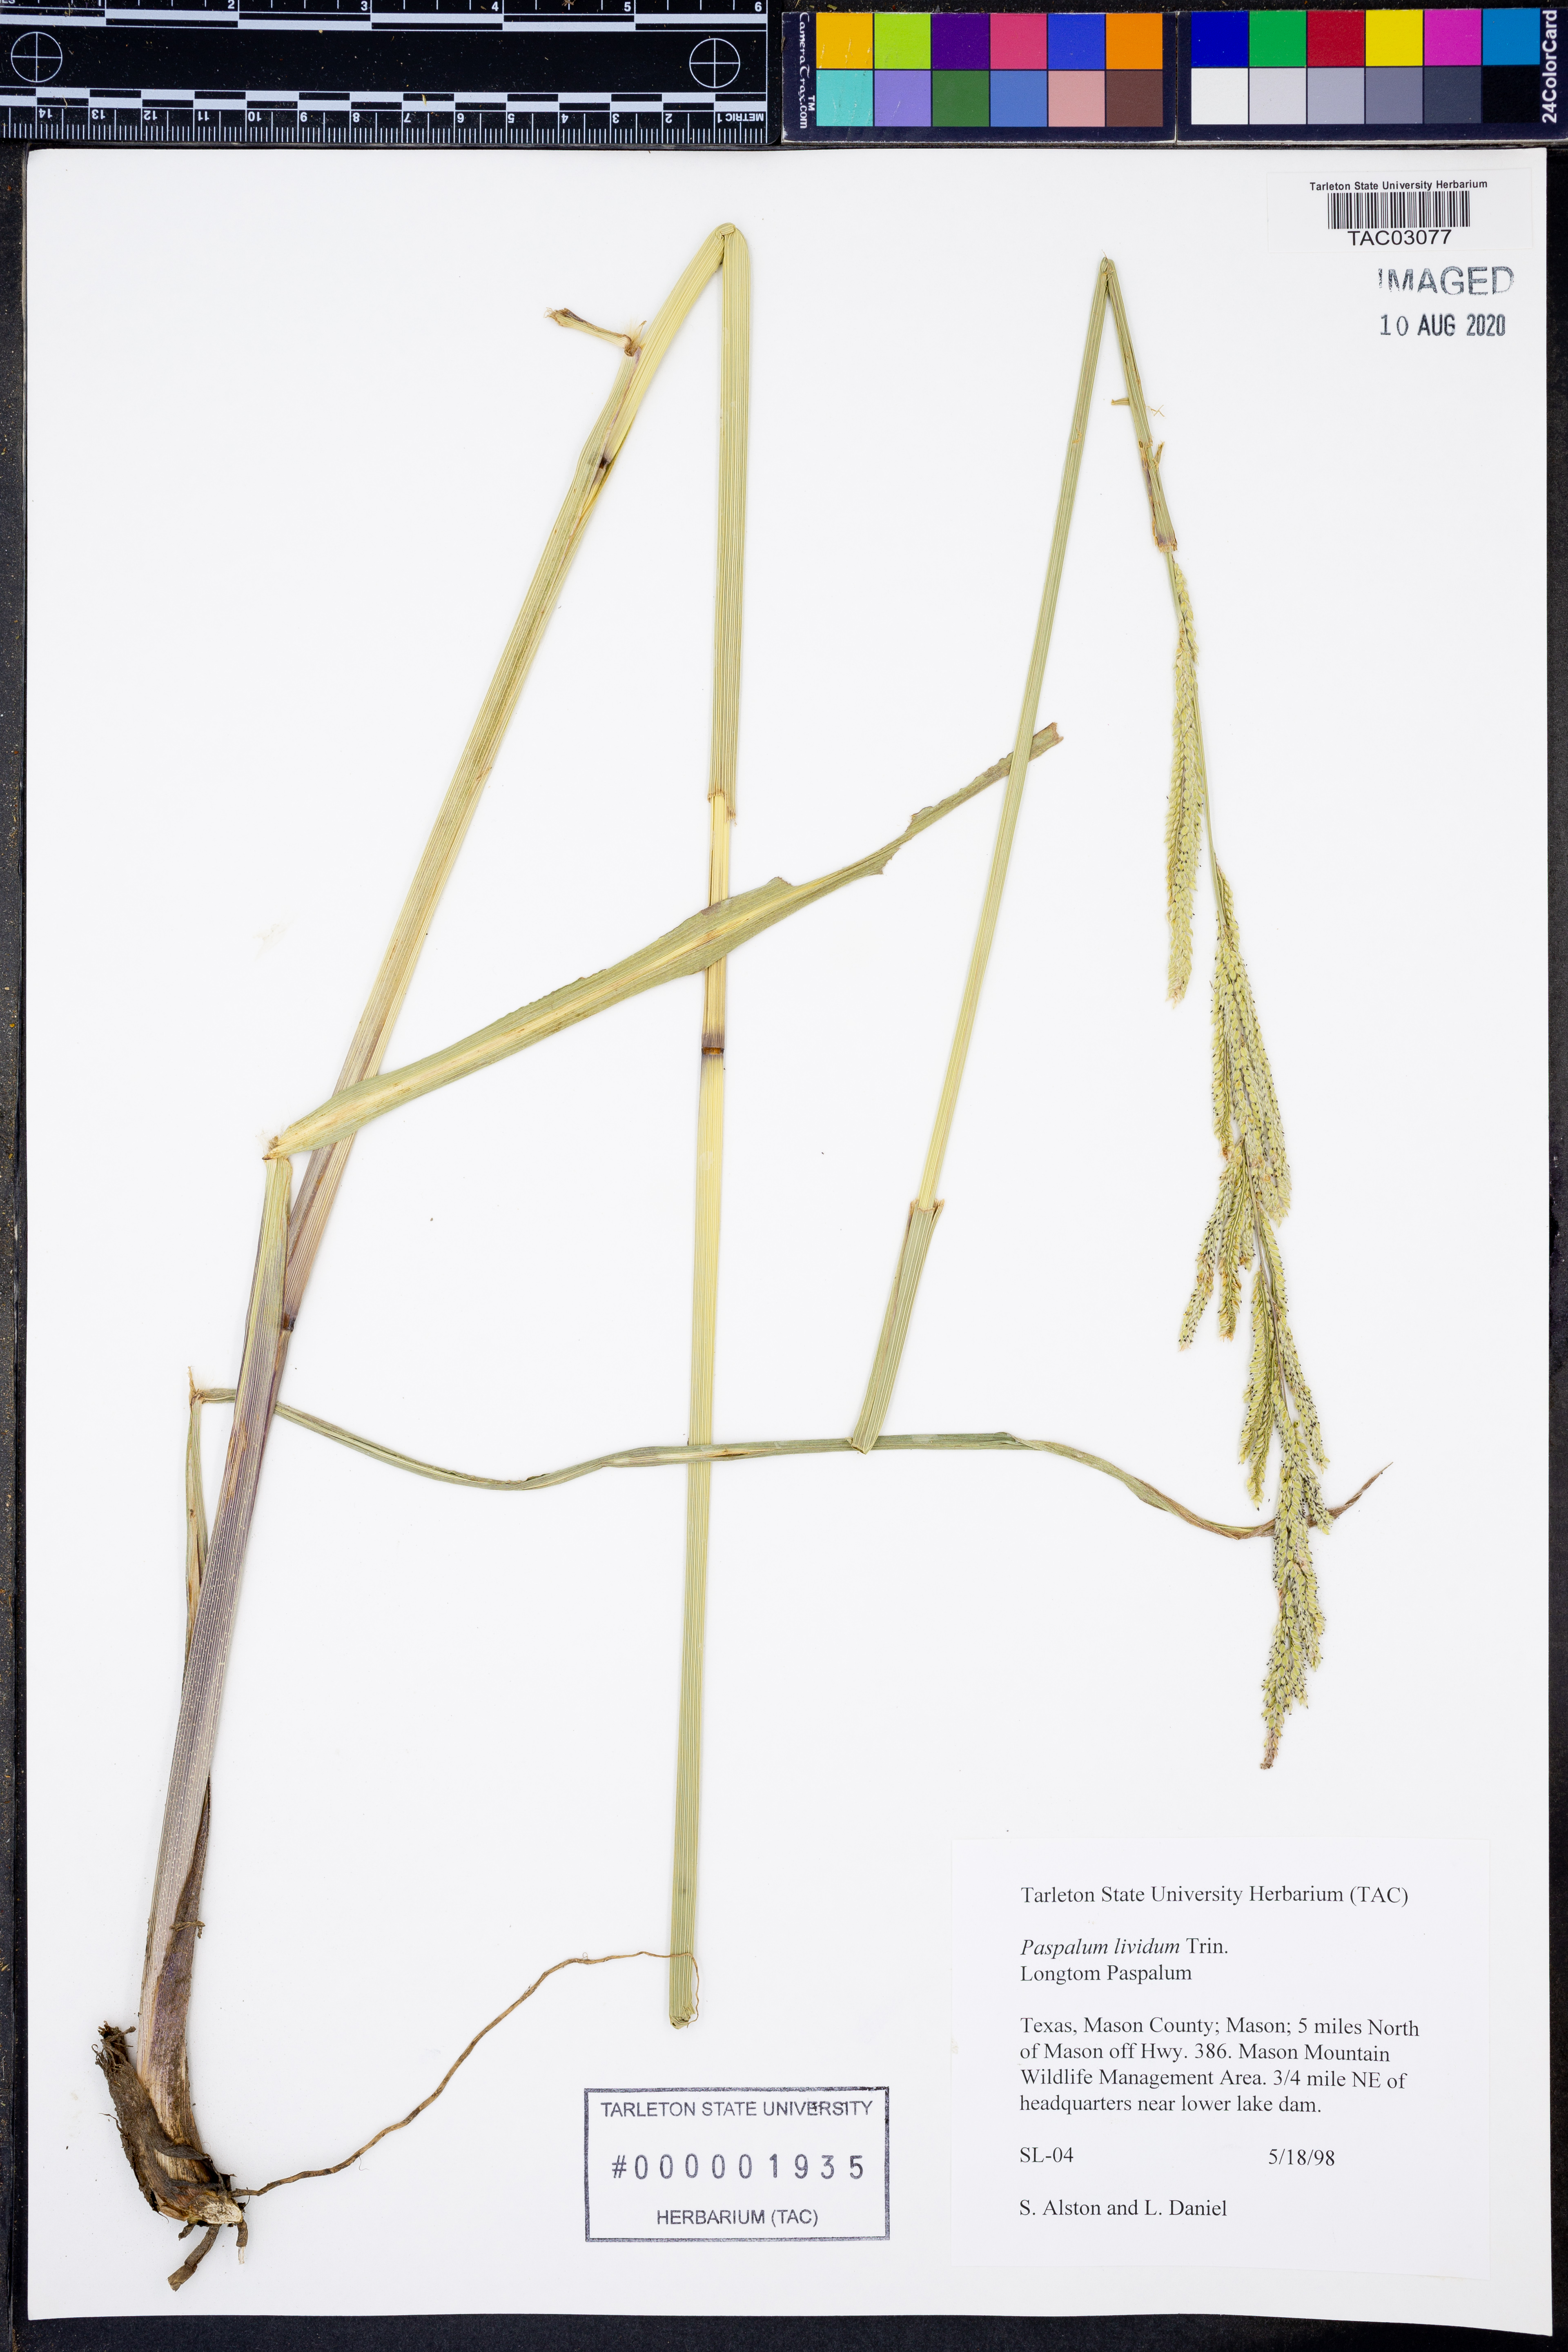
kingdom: Plantae
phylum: Tracheophyta
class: Liliopsida
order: Poales
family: Poaceae
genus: Paspalum
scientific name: Paspalum denticulatum
